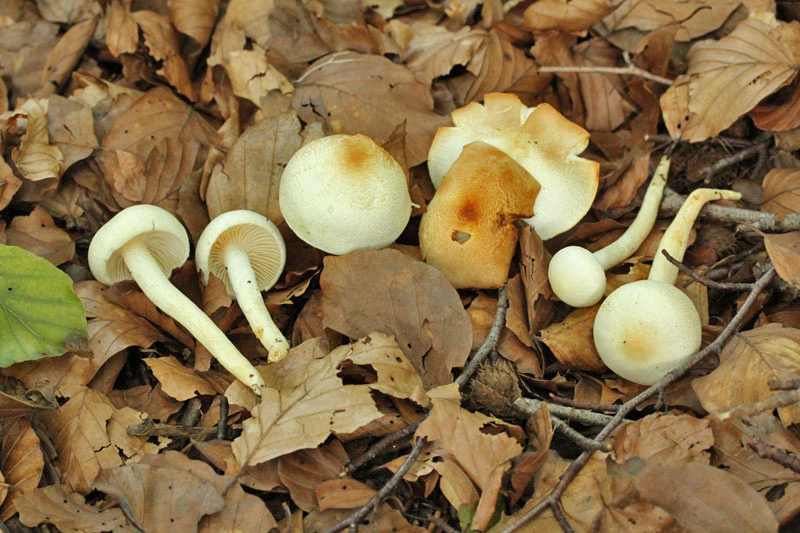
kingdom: Fungi
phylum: Basidiomycota
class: Agaricomycetes
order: Agaricales
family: Hygrophoraceae
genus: Hygrophorus
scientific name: Hygrophorus discoxanthus
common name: ildelugtende sneglehat
